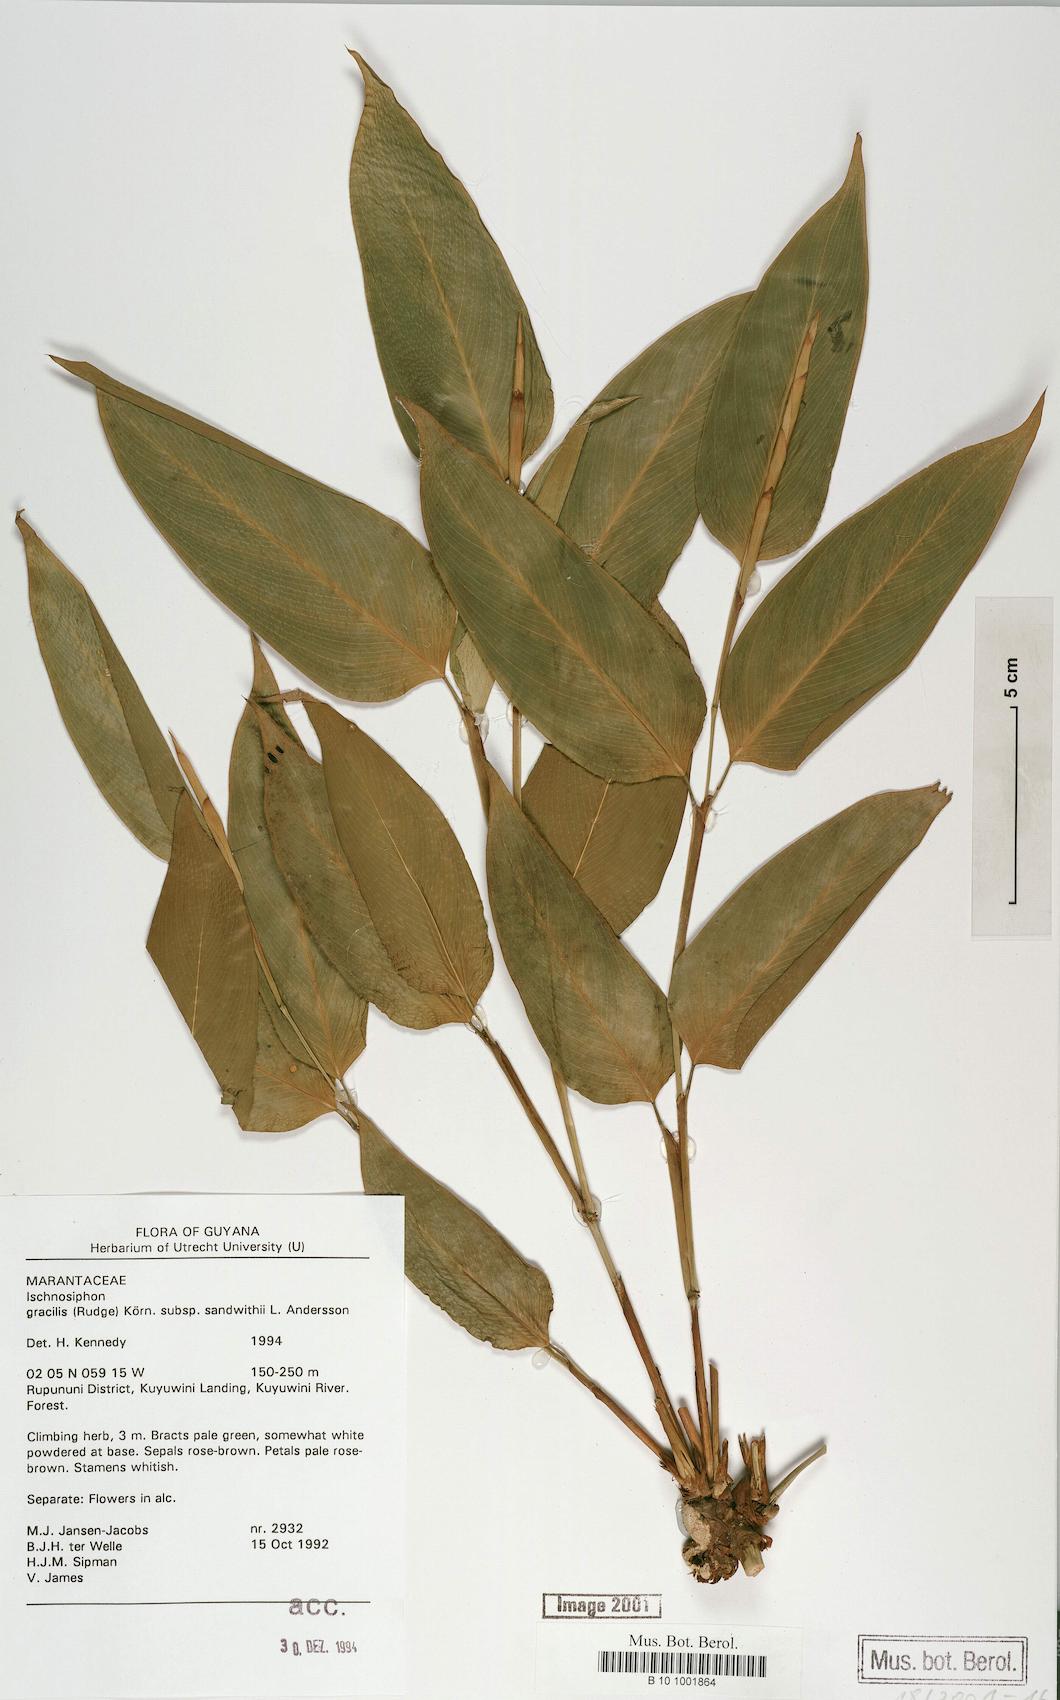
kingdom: Plantae
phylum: Tracheophyta
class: Liliopsida
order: Zingiberales
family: Marantaceae
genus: Ischnosiphon
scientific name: Ischnosiphon gracilis
